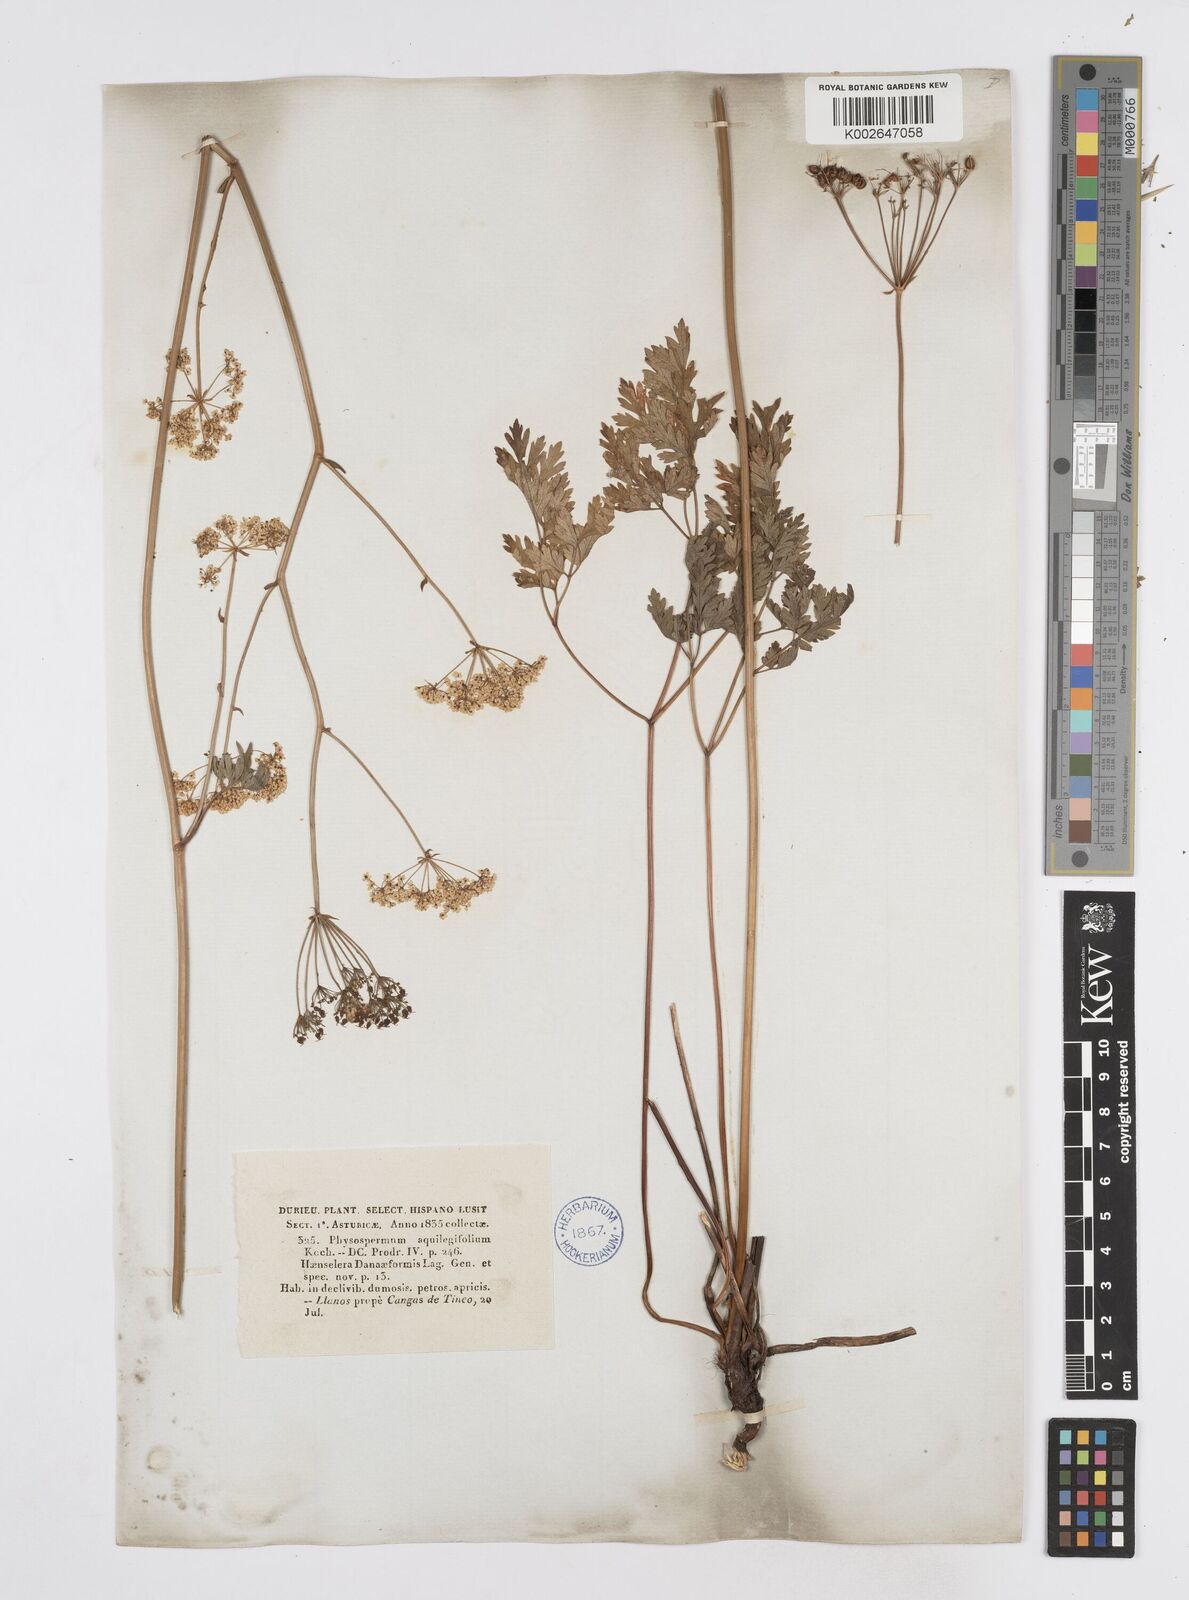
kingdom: Plantae
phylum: Tracheophyta
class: Magnoliopsida
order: Apiales
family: Apiaceae
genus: Physospermum
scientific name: Physospermum cornubiense
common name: Bladderseed
